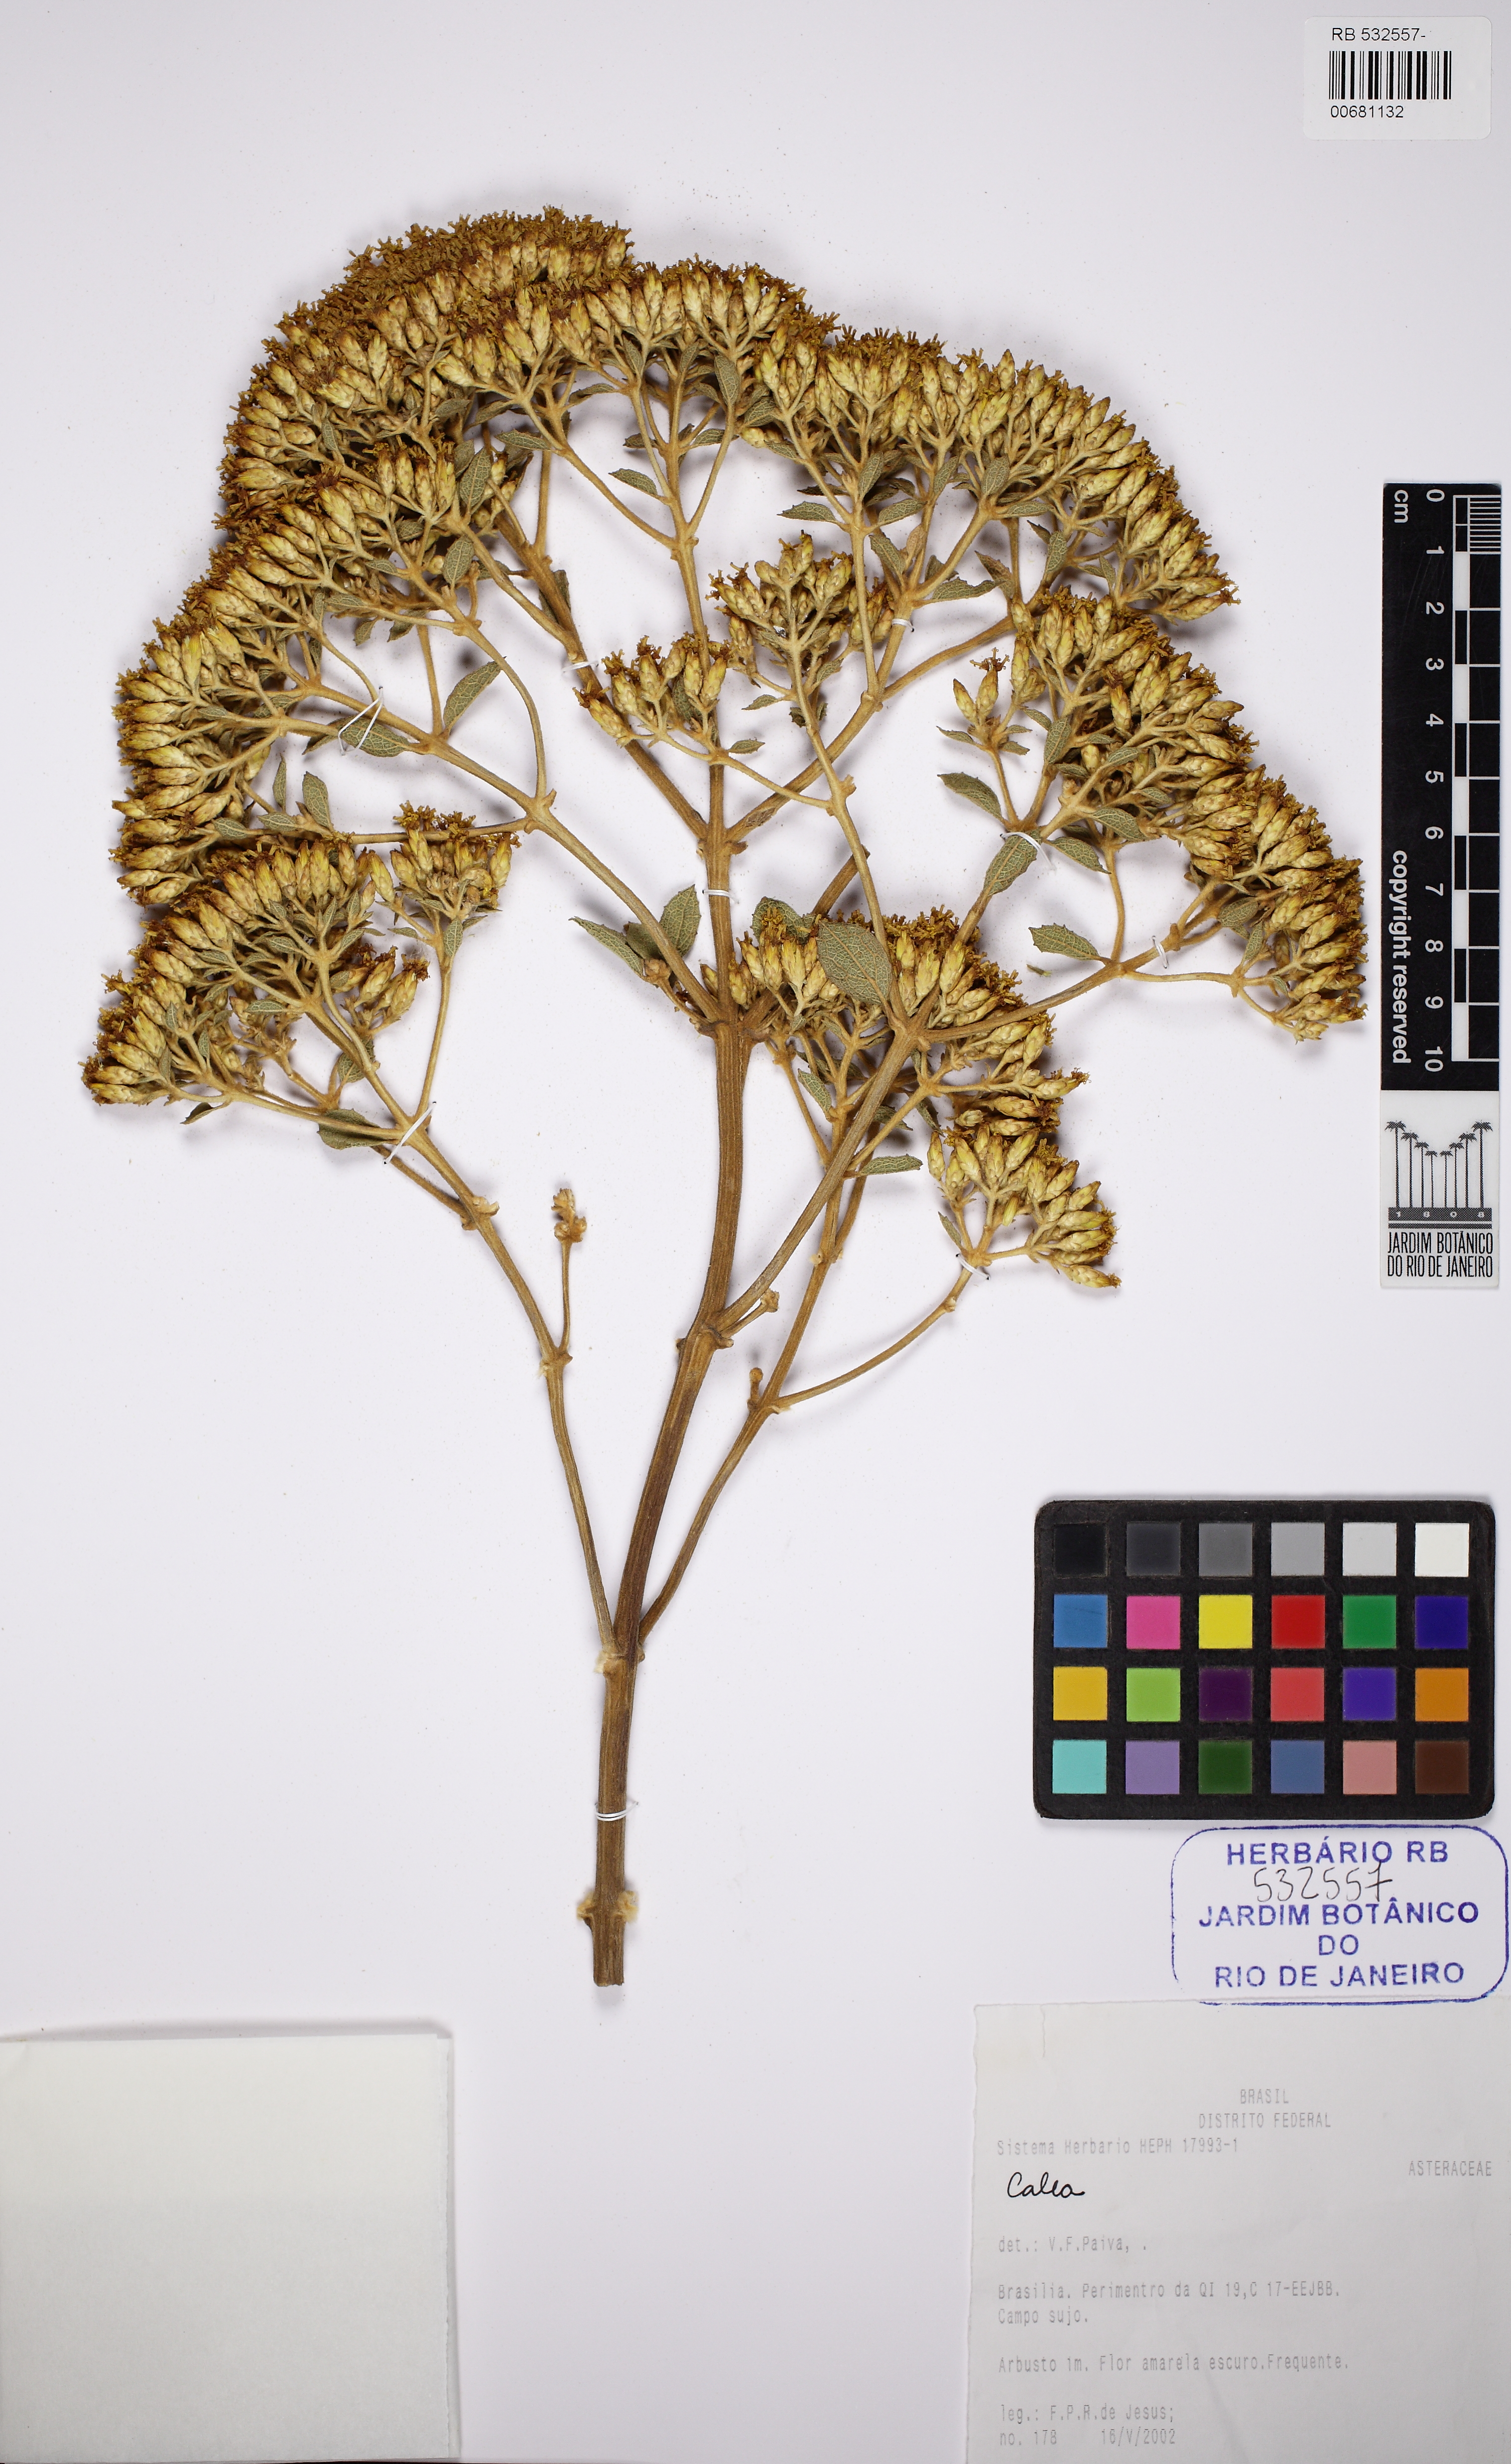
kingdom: Plantae
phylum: Tracheophyta
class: Magnoliopsida
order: Asterales
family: Asteraceae
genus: Calea
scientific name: Calea fruticosa
